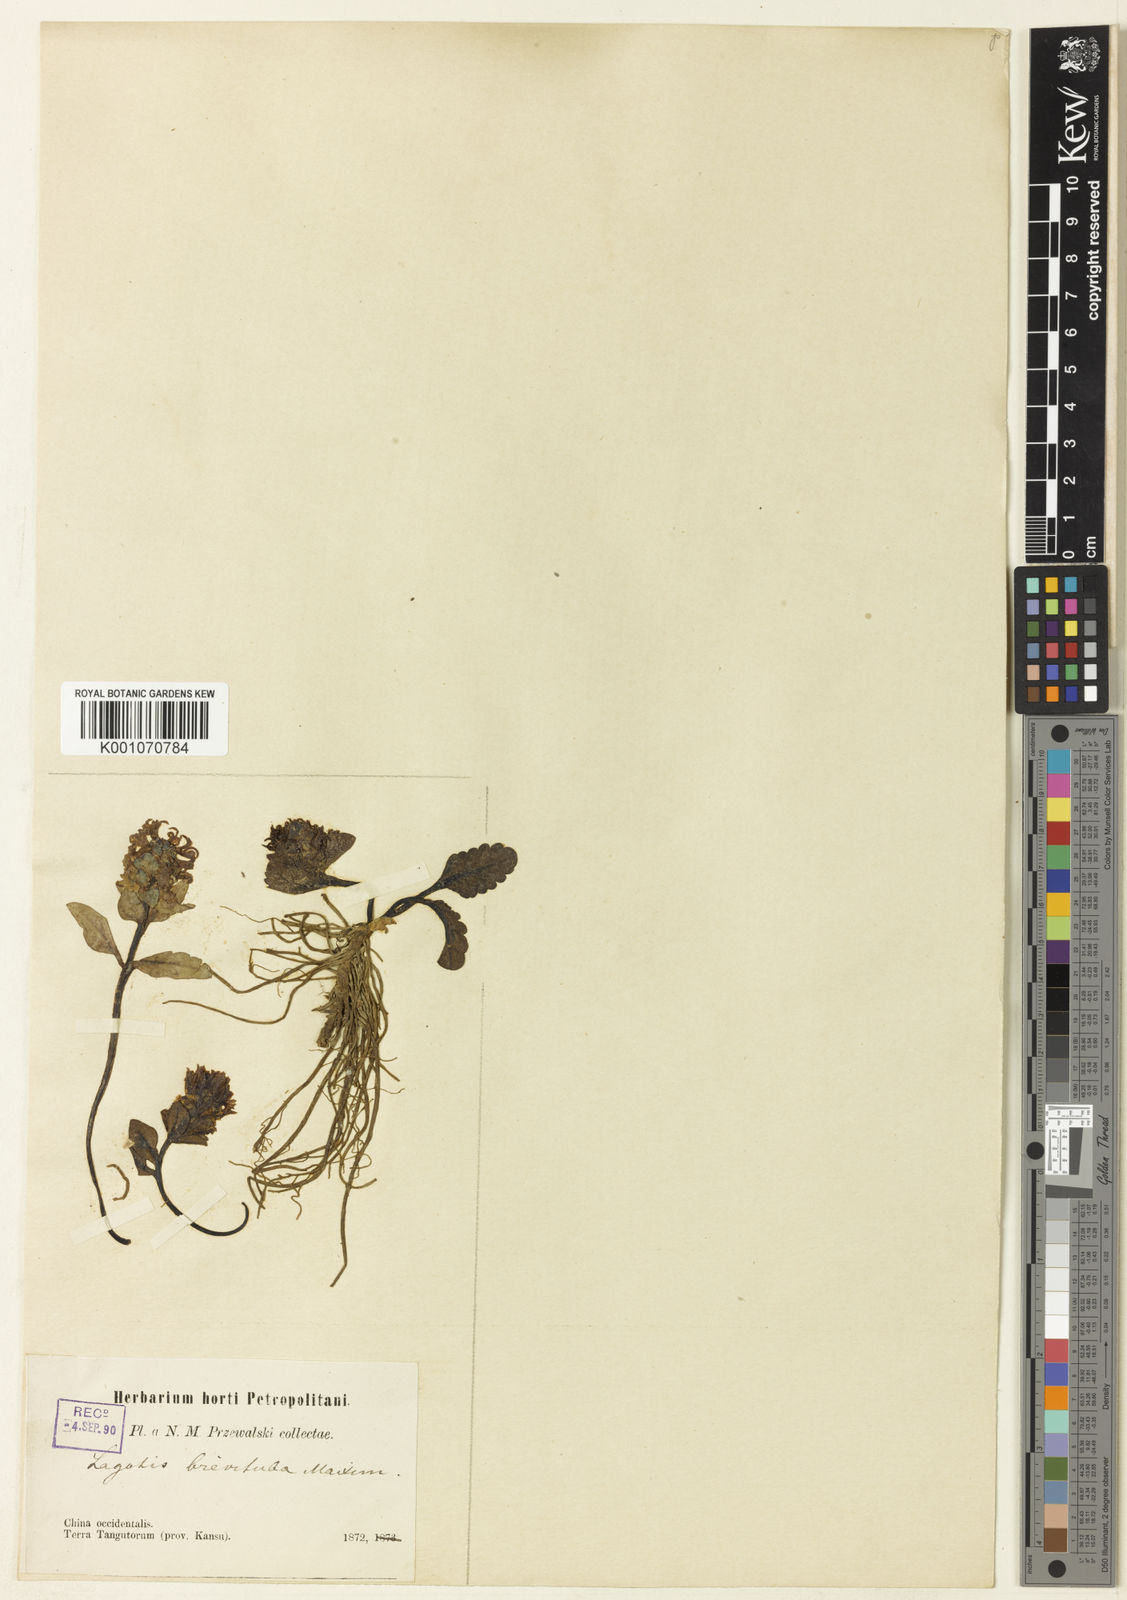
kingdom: Plantae
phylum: Tracheophyta
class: Magnoliopsida
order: Lamiales
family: Plantaginaceae
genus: Lagotis
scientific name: Lagotis brevituba
